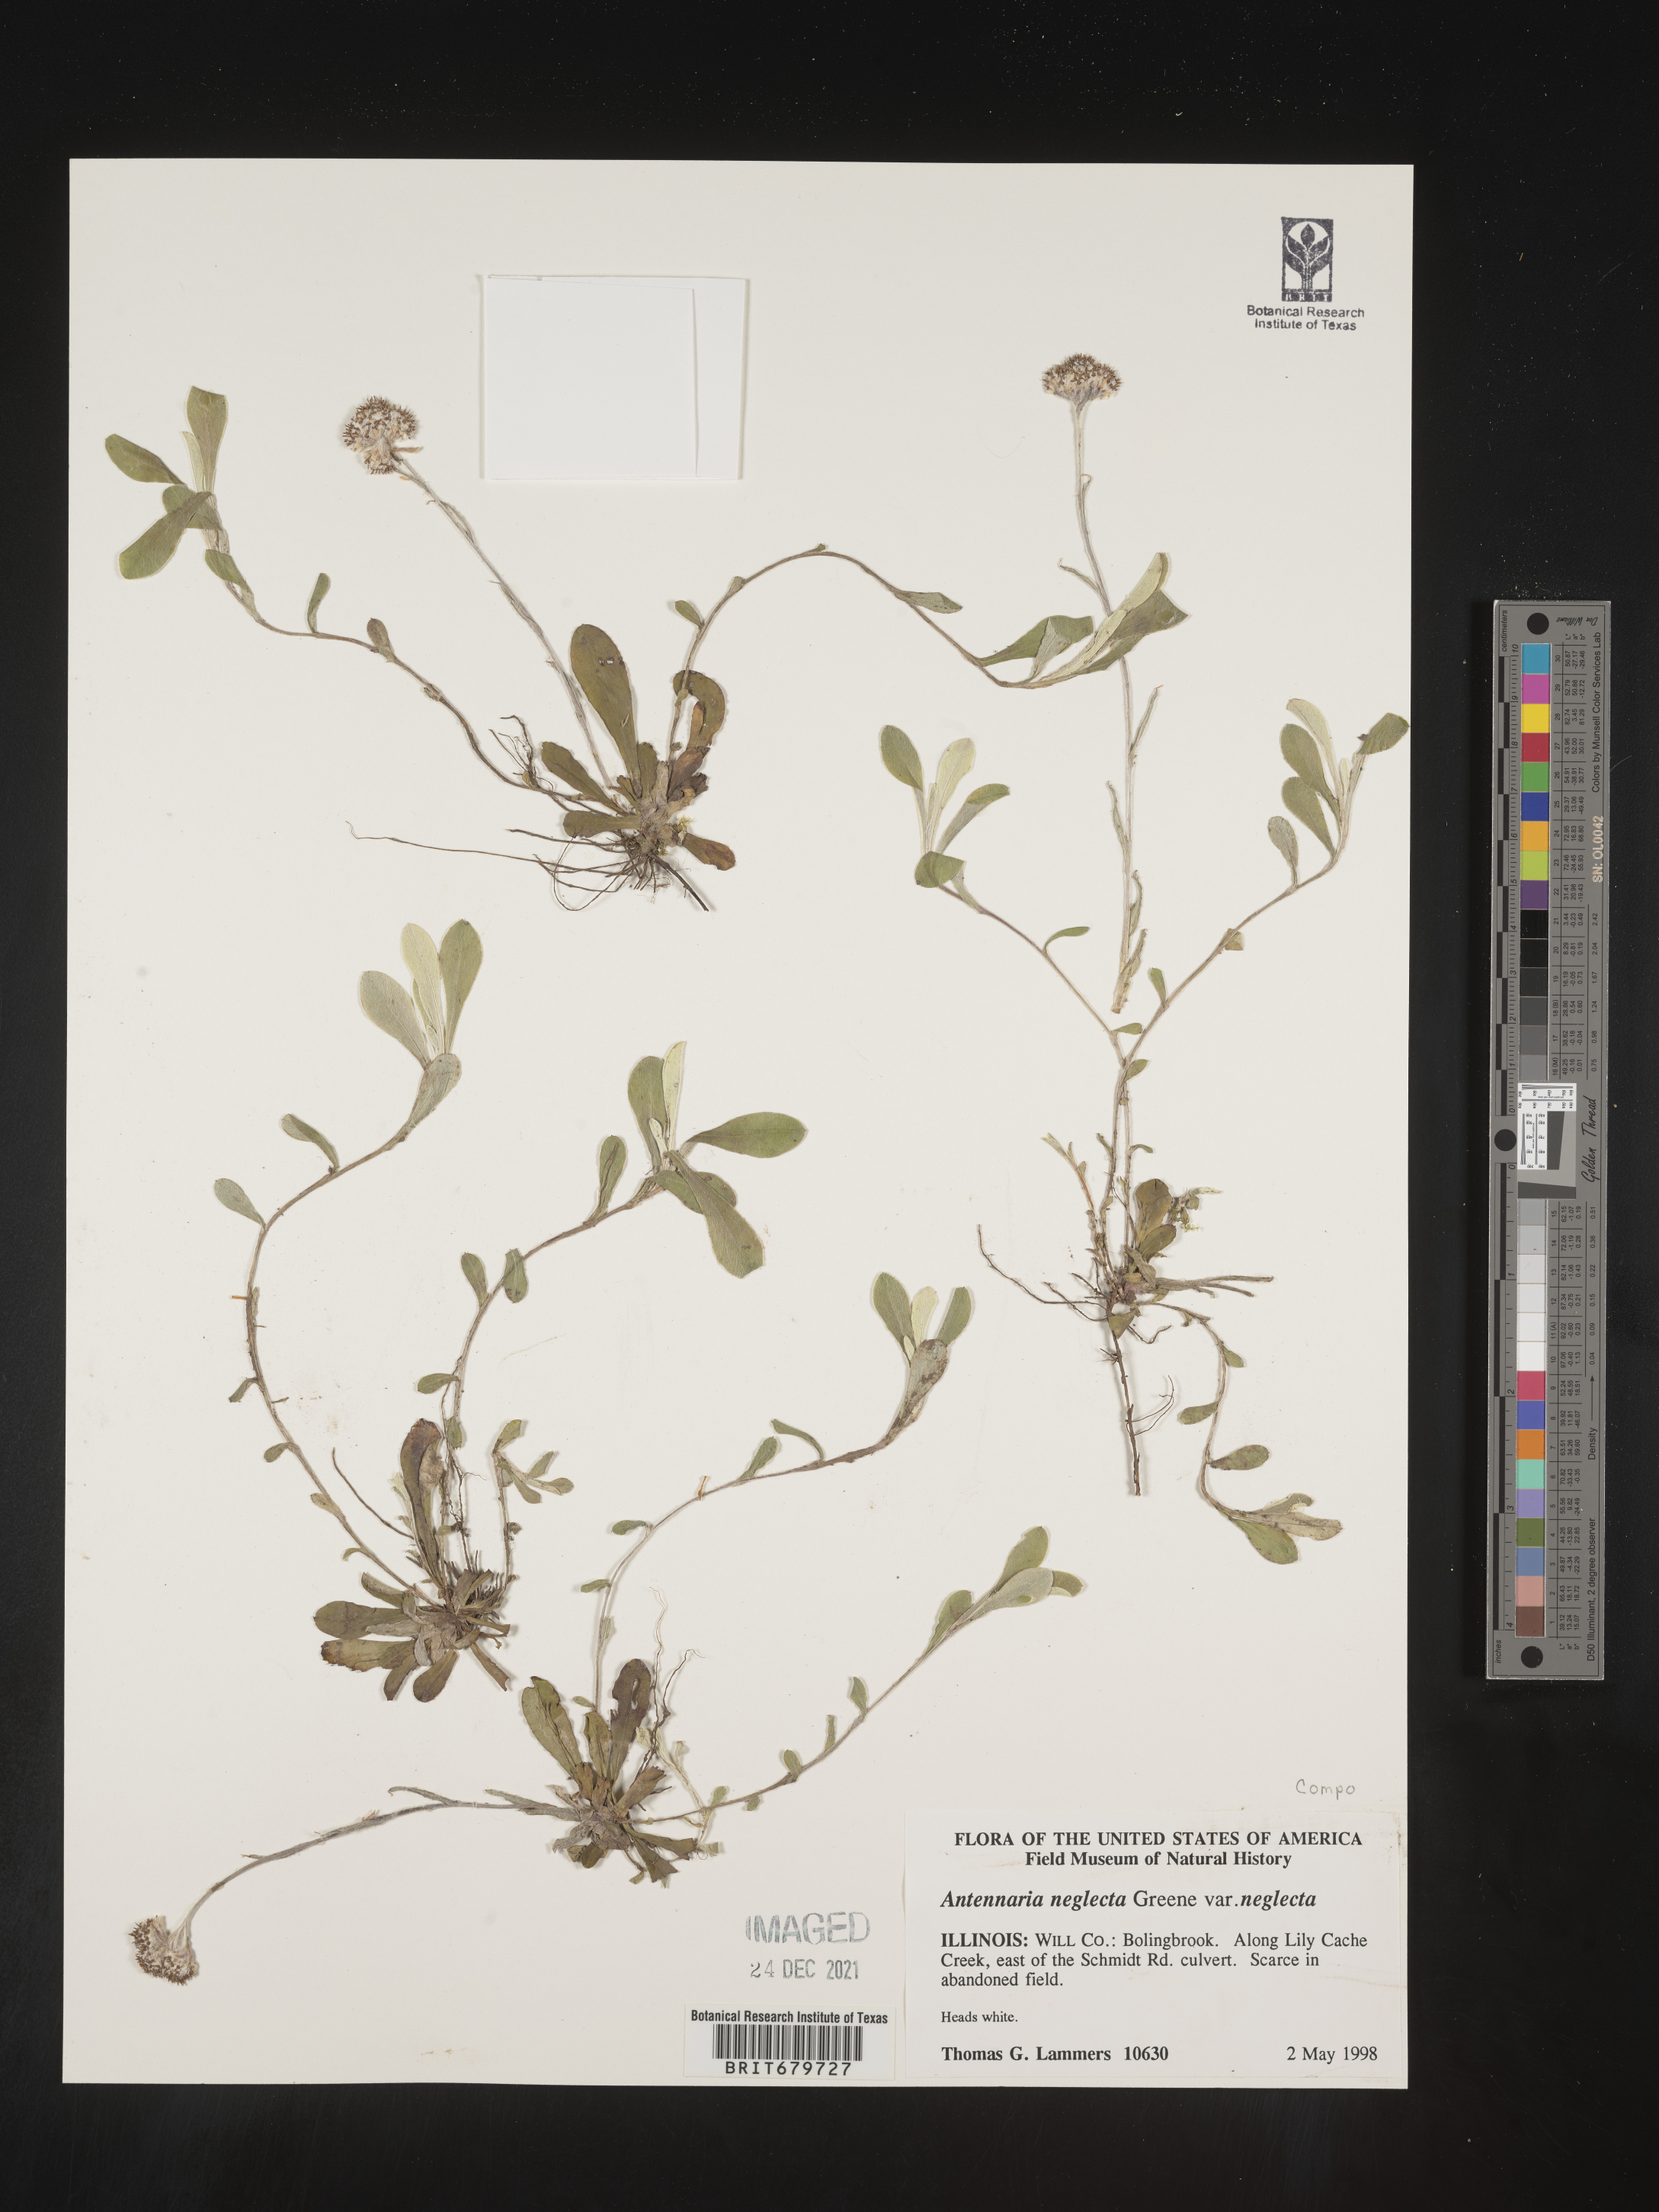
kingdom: Plantae
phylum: Tracheophyta
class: Magnoliopsida
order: Asterales
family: Asteraceae
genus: Antennaria
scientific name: Antennaria neglecta
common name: Field pussytoes
